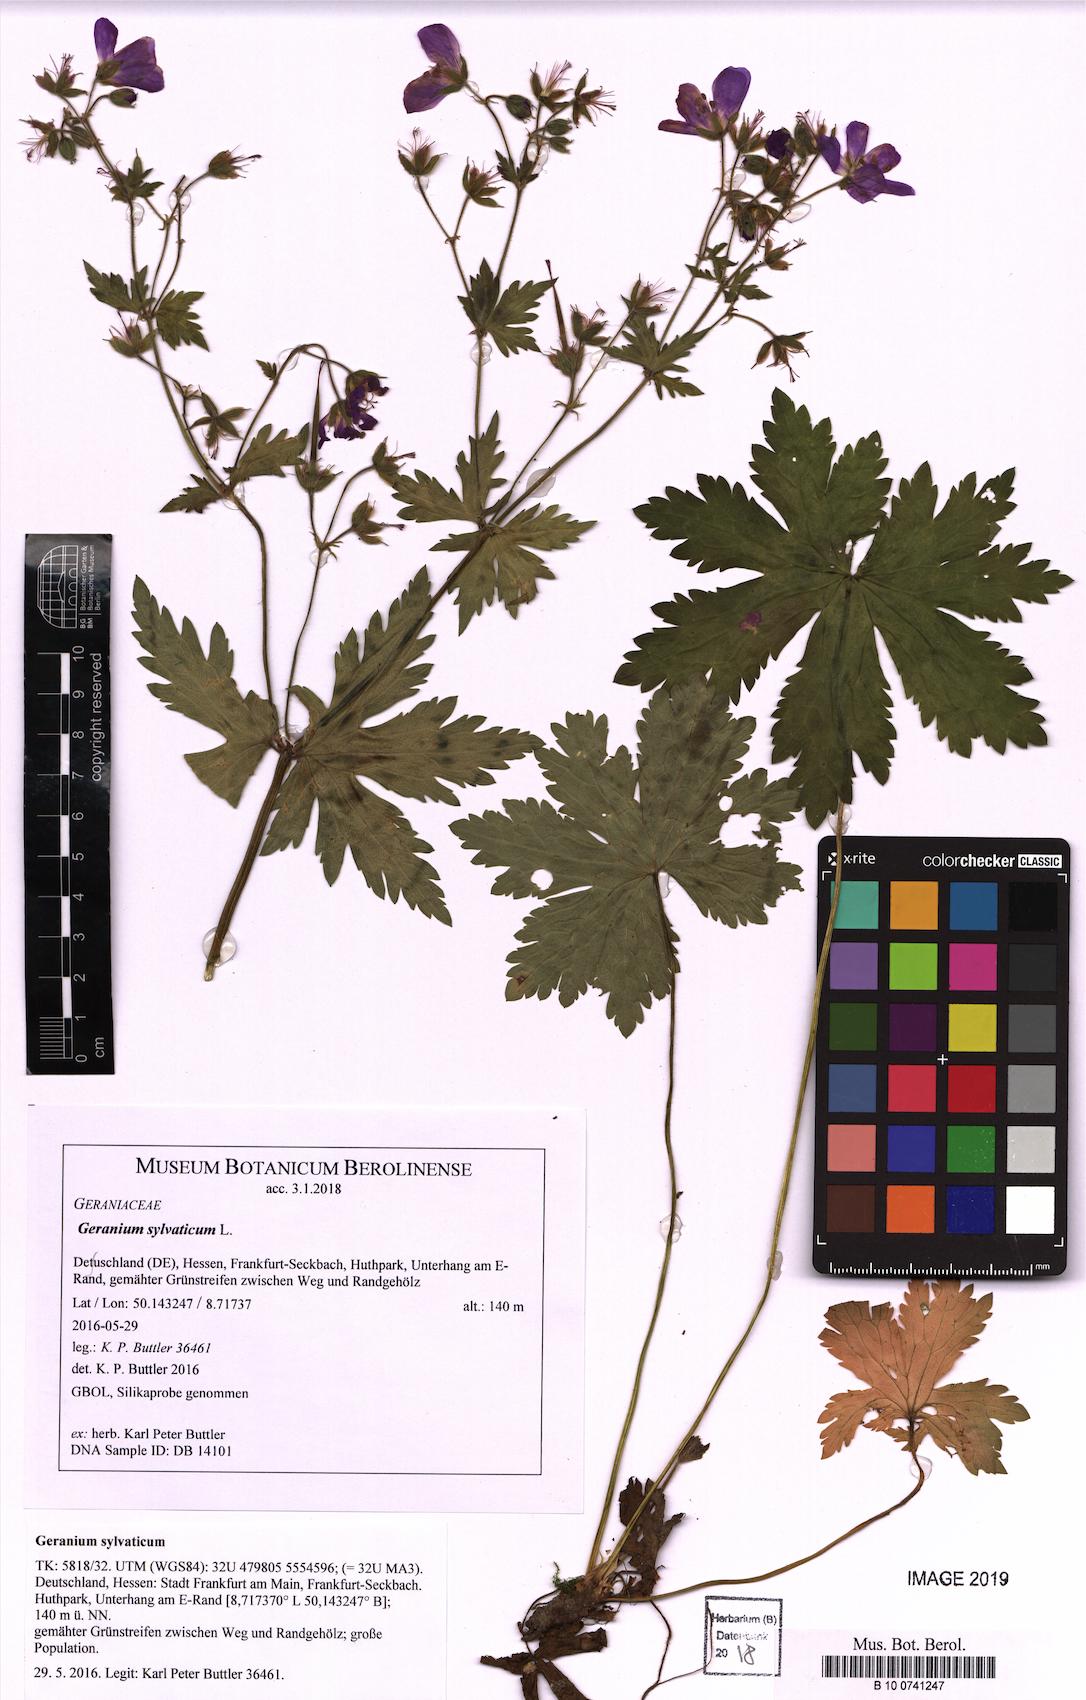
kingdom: Plantae
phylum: Tracheophyta
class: Magnoliopsida
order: Geraniales
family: Geraniaceae
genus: Geranium
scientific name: Geranium sylvaticum
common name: Wood crane's-bill
